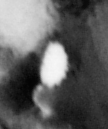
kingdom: Animalia
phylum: Chordata
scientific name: Chordata
